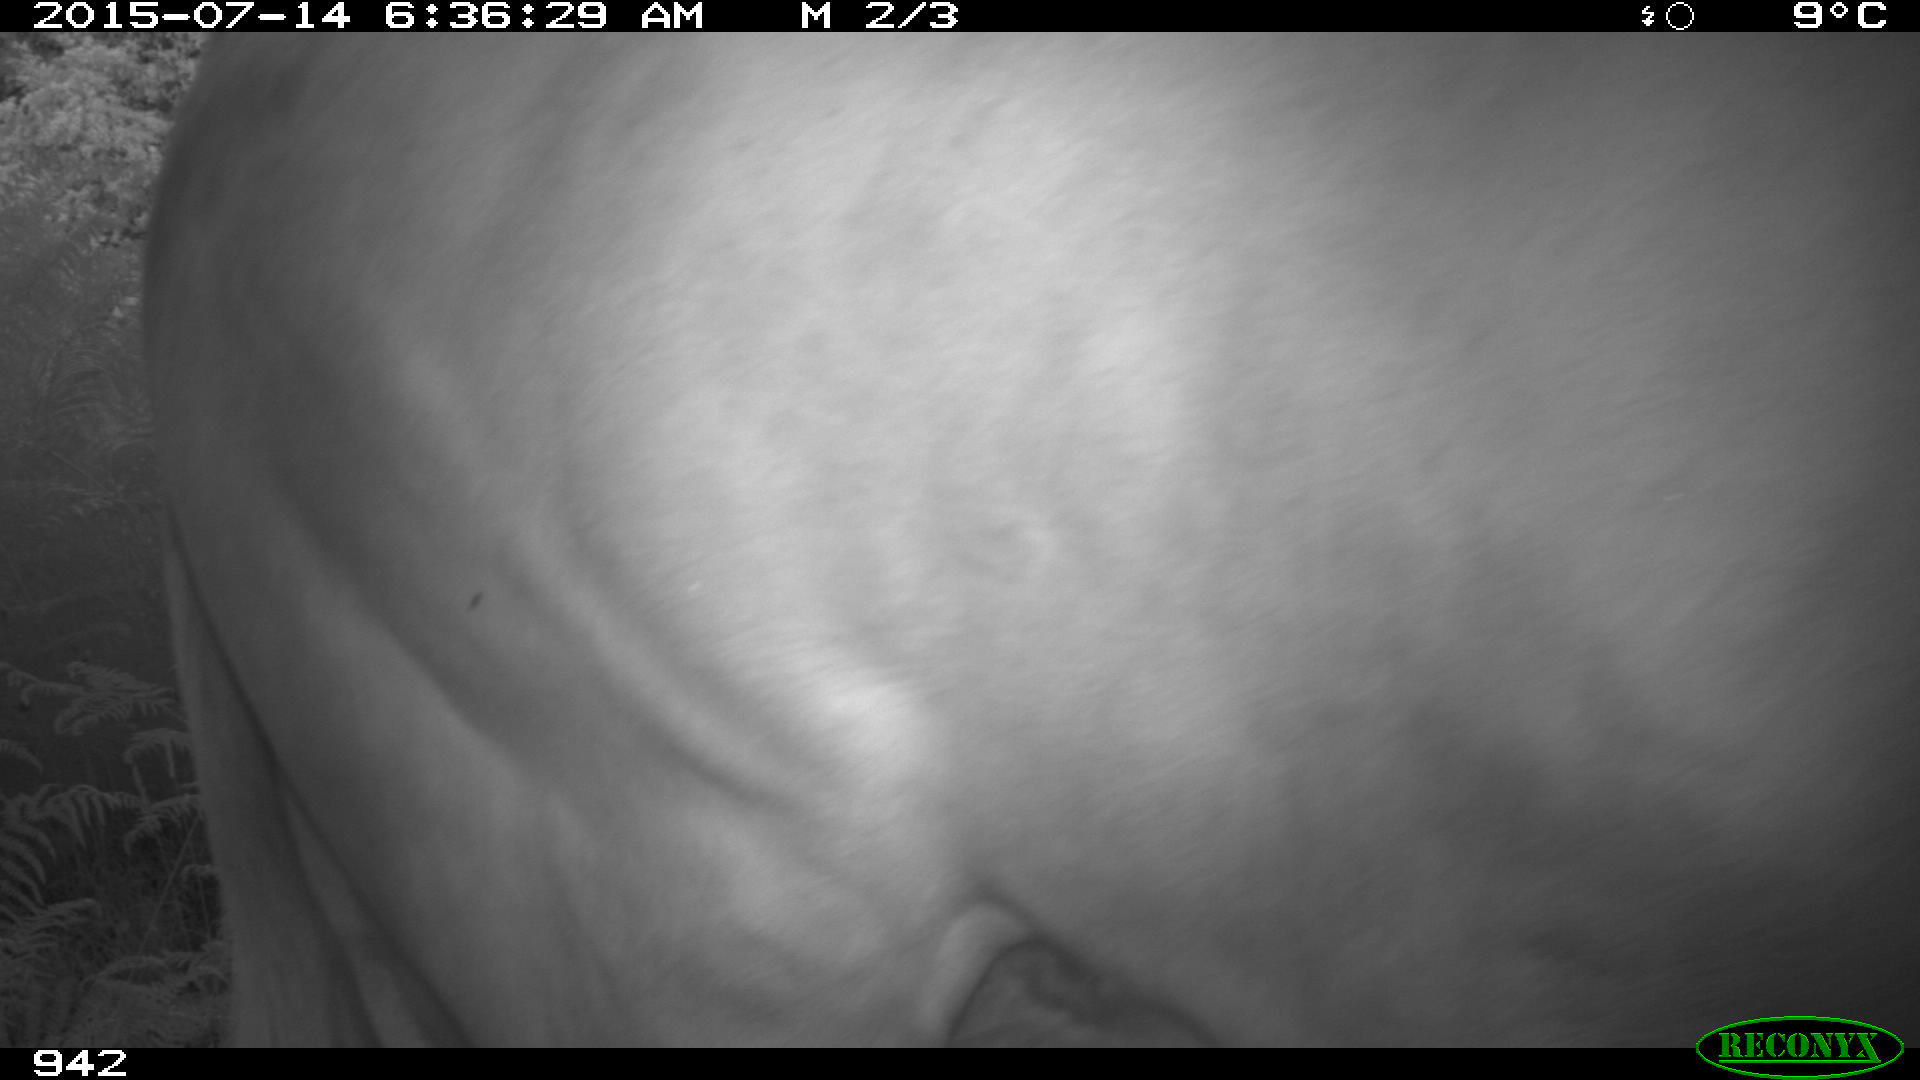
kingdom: Animalia
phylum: Chordata
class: Mammalia
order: Artiodactyla
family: Bovidae
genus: Bos
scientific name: Bos taurus
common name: Domesticated cattle
